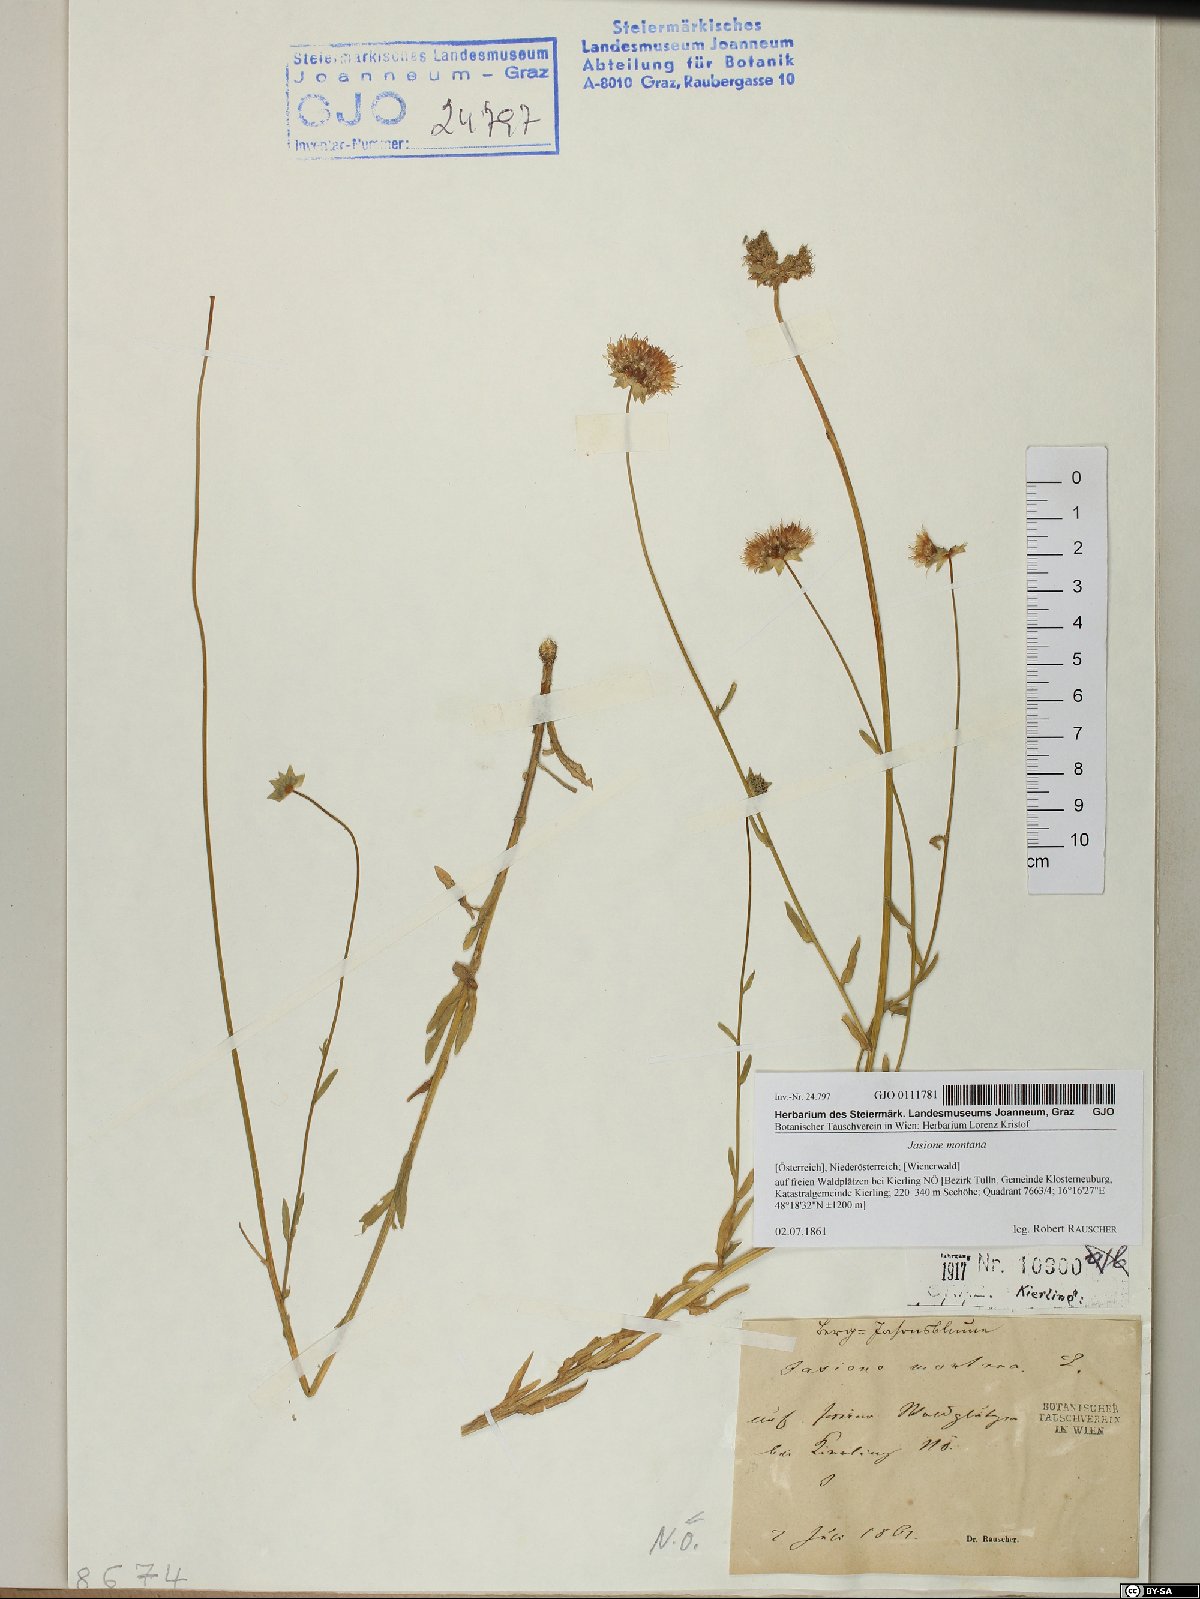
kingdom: Plantae
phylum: Tracheophyta
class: Magnoliopsida
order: Asterales
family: Campanulaceae
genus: Jasione
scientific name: Jasione montana
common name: Sheep's-bit
